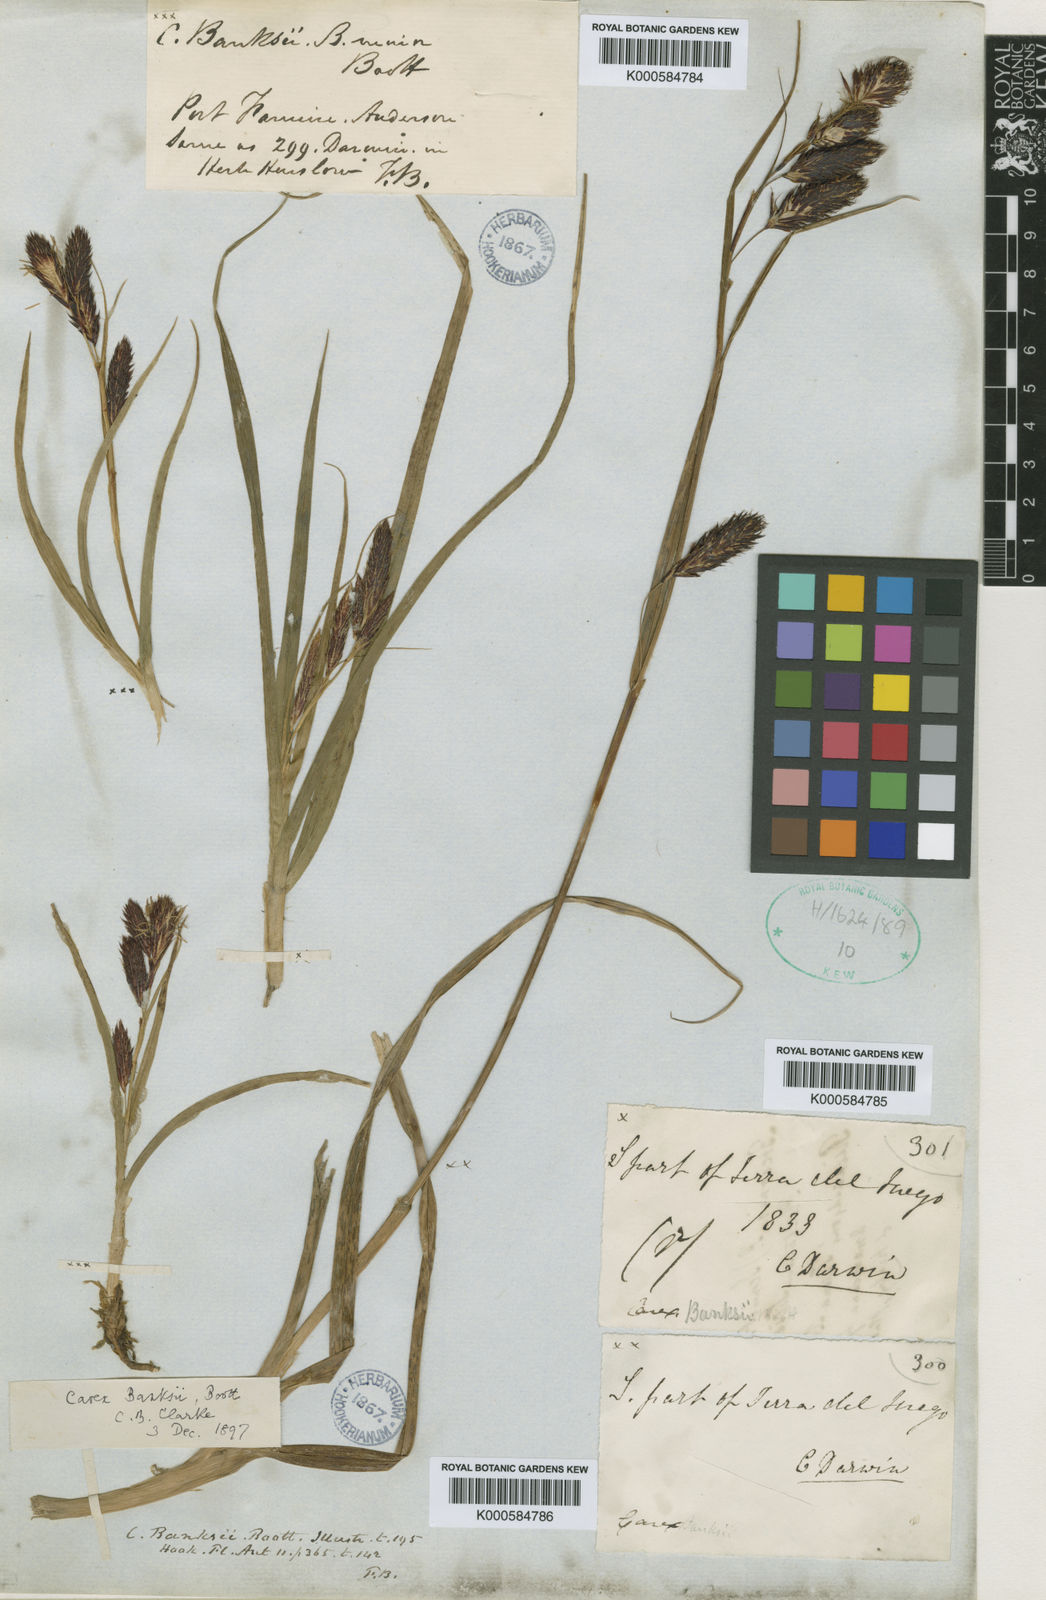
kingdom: Plantae
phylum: Tracheophyta
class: Liliopsida
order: Poales
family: Cyperaceae
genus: Carex
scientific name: Carex banksii
